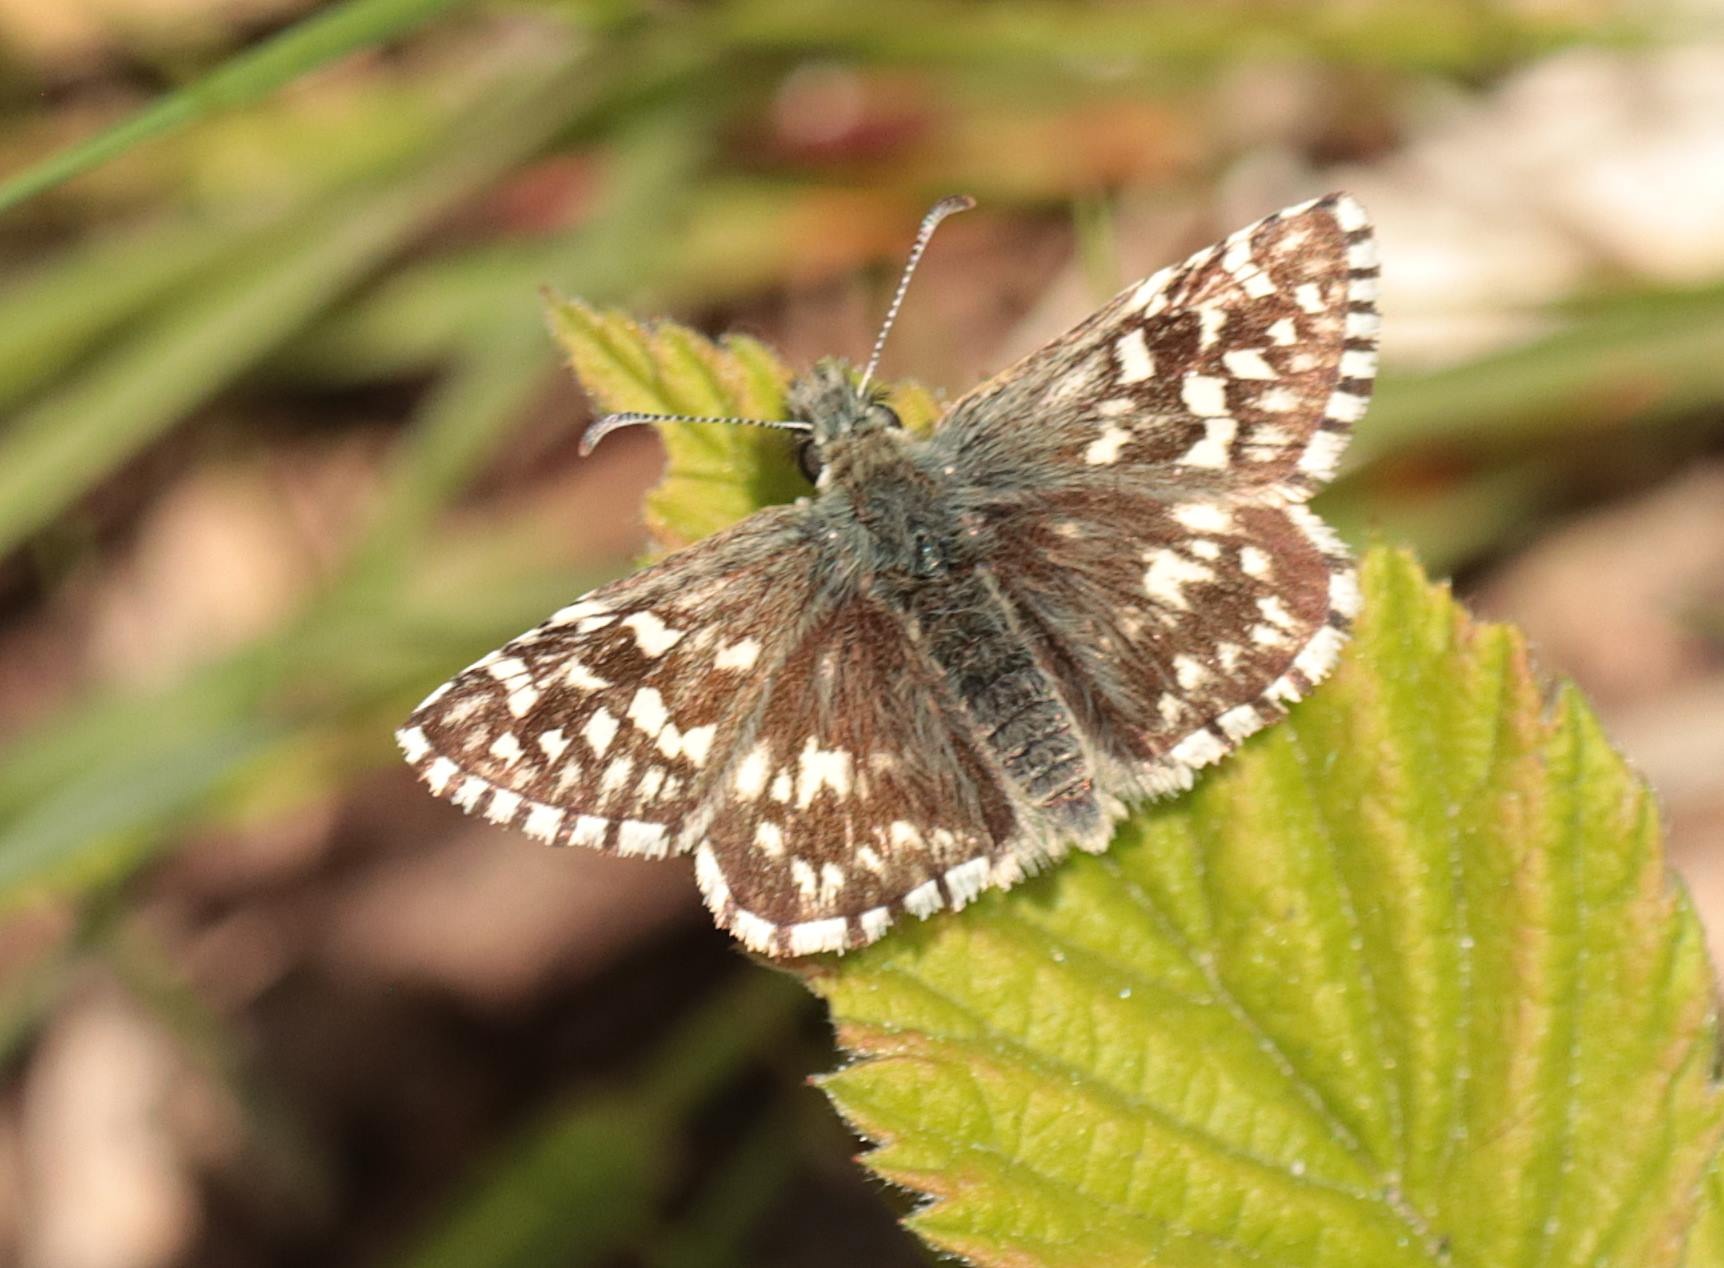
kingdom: Animalia
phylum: Arthropoda
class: Insecta
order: Lepidoptera
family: Hesperiidae
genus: Pyrgus
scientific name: Pyrgus malvae
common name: Spættet bredpande
